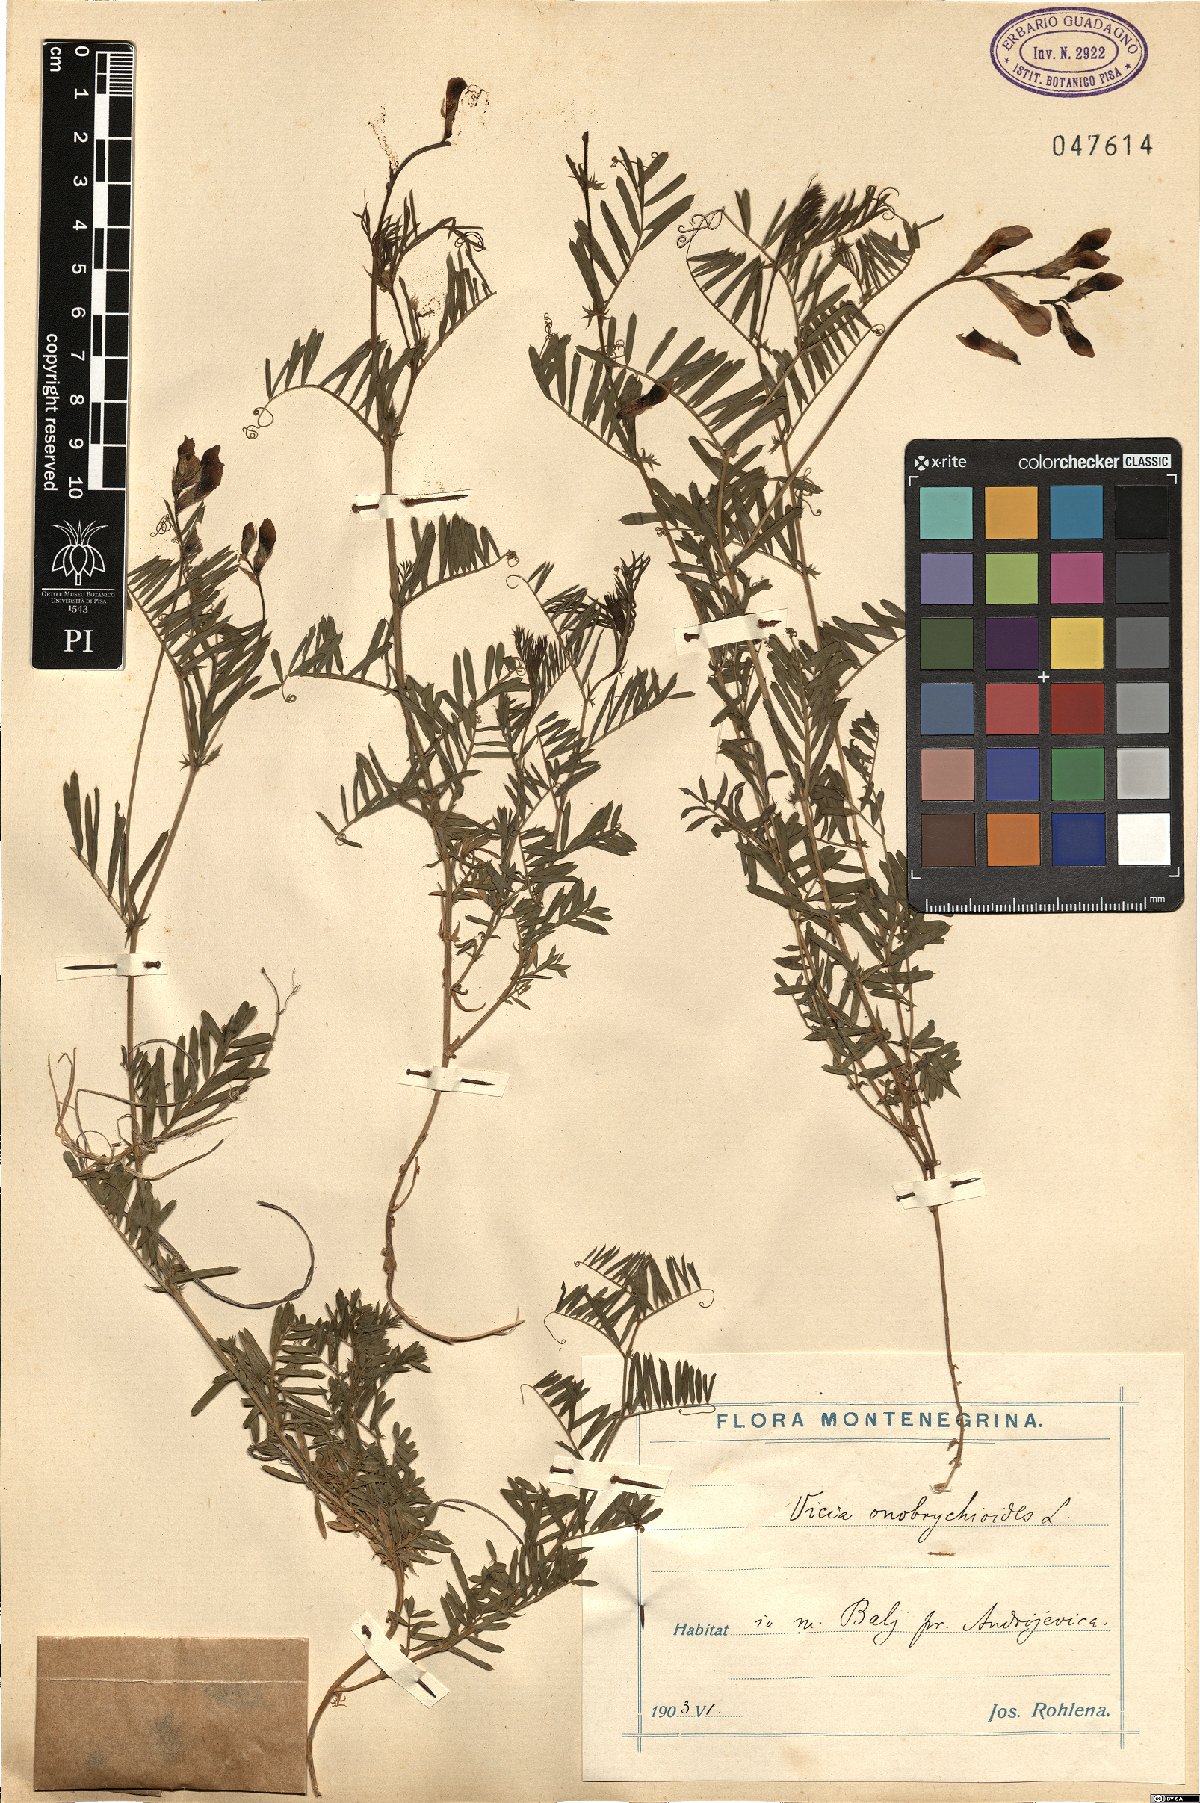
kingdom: Plantae
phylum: Tracheophyta
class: Magnoliopsida
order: Fabales
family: Fabaceae
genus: Vicia
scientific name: Vicia onobrychioides
